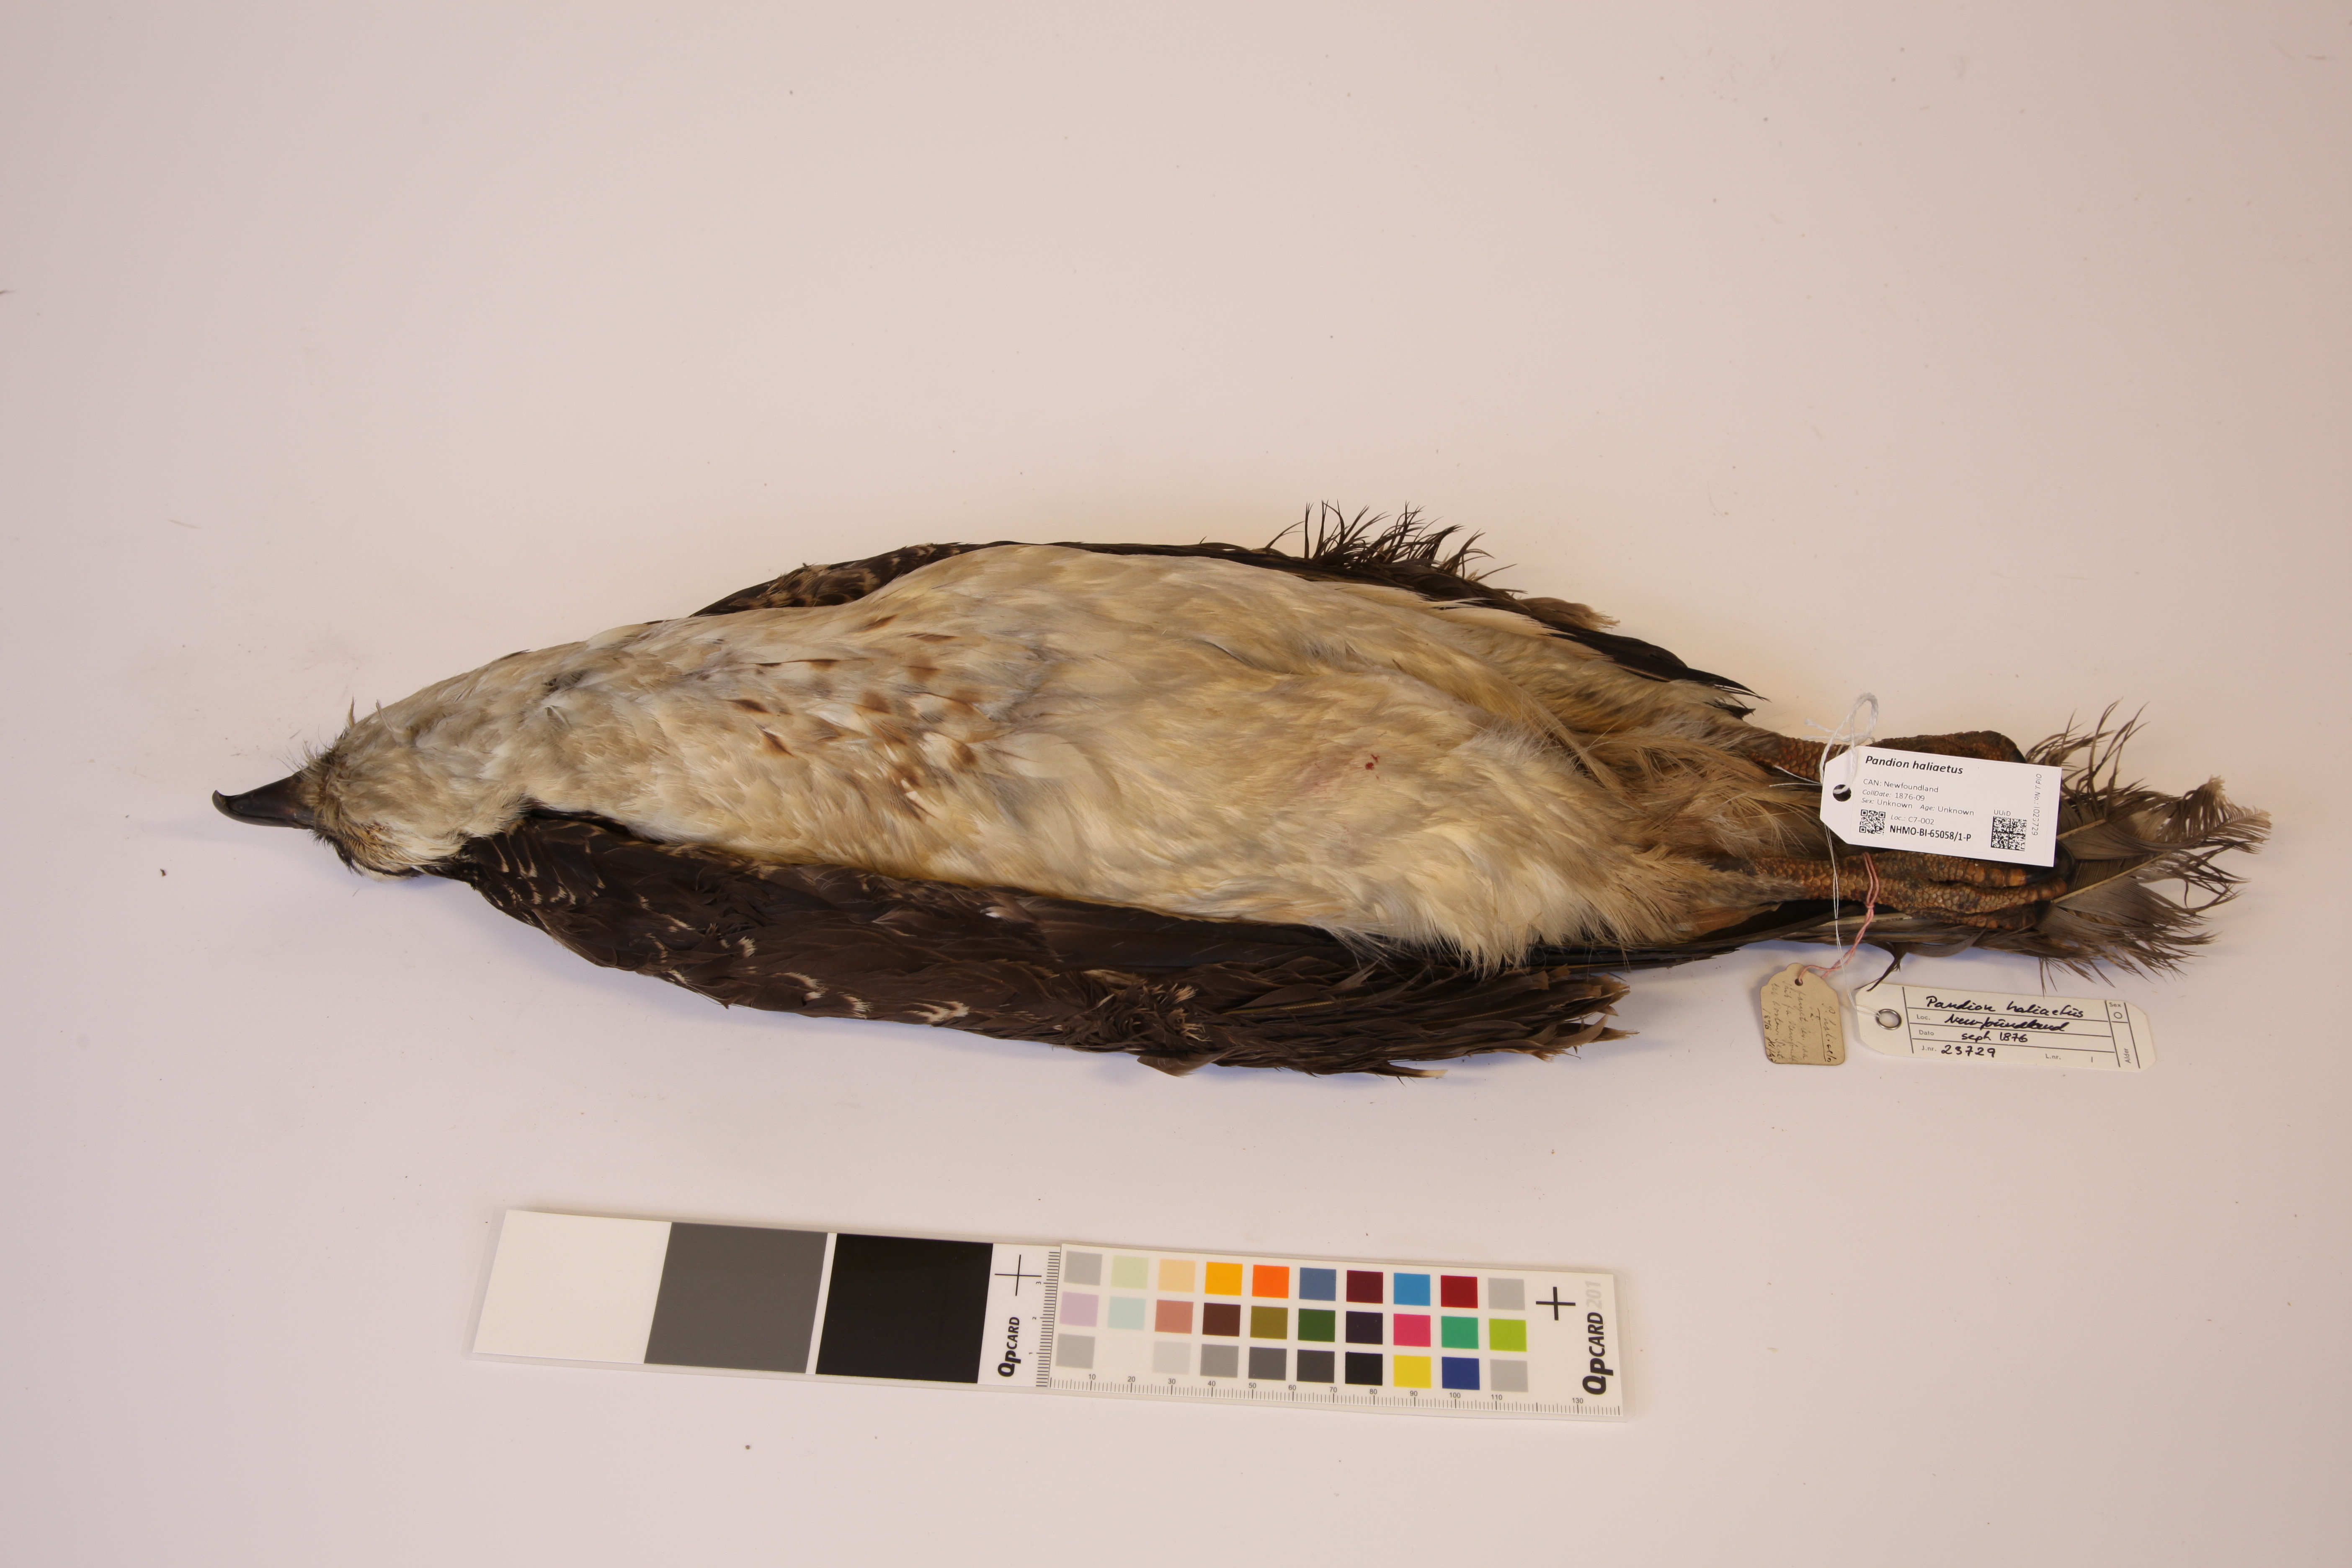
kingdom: Animalia
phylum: Chordata
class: Aves
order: Accipitriformes
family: Pandionidae
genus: Pandion
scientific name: Pandion haliaetus
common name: Osprey
